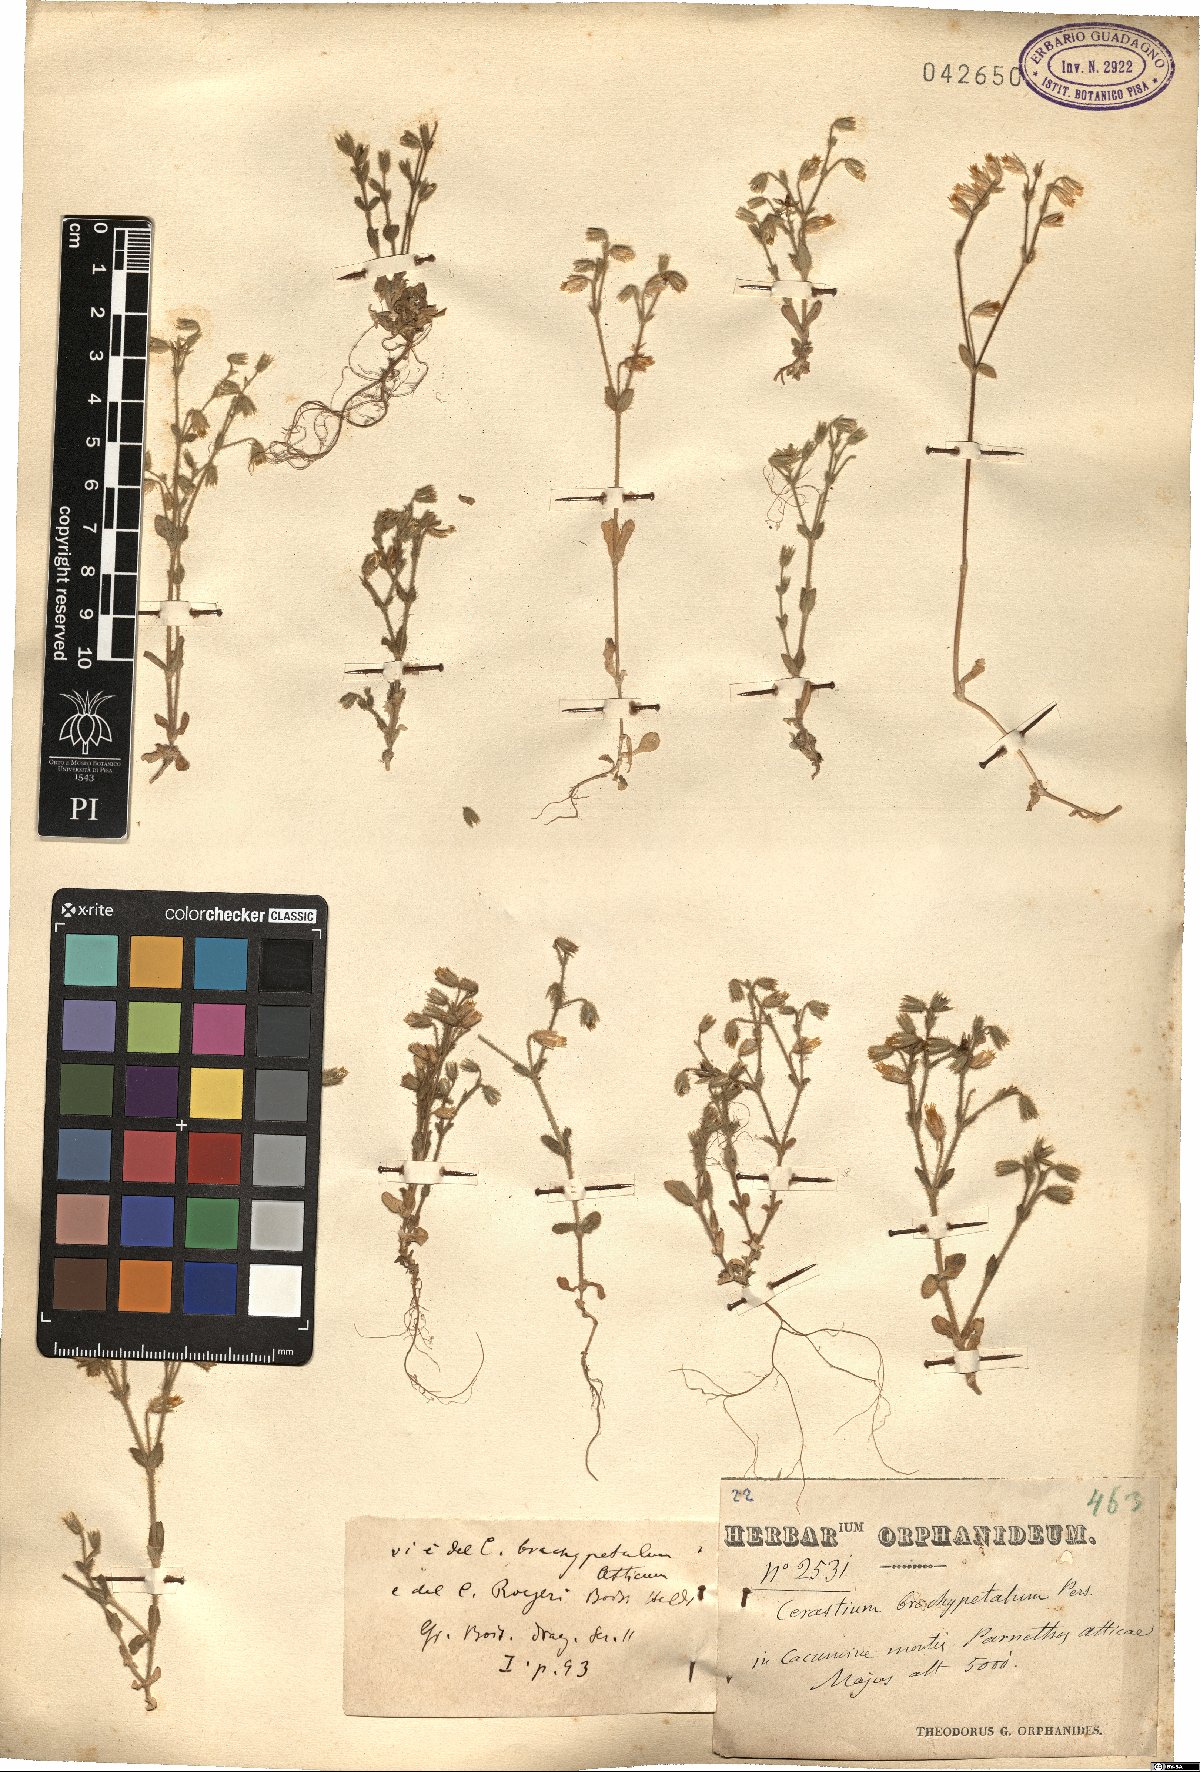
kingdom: Plantae
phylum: Tracheophyta
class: Magnoliopsida
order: Caryophyllales
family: Caryophyllaceae
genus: Cerastium
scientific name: Cerastium brachypetalum
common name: Grey mouse-ear
